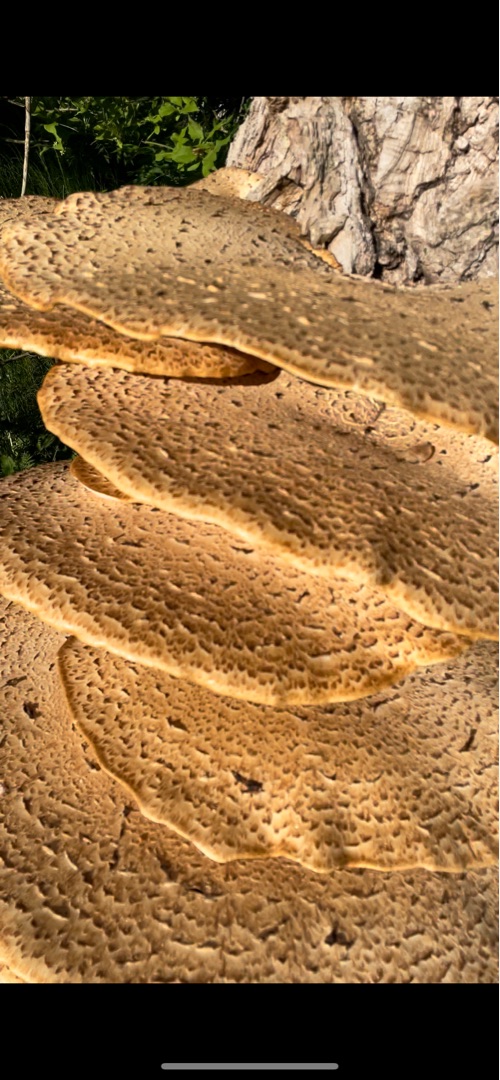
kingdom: Fungi
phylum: Basidiomycota
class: Agaricomycetes
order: Polyporales
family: Polyporaceae
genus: Cerioporus
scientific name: Cerioporus squamosus
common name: Skællet stilkporesvamp
